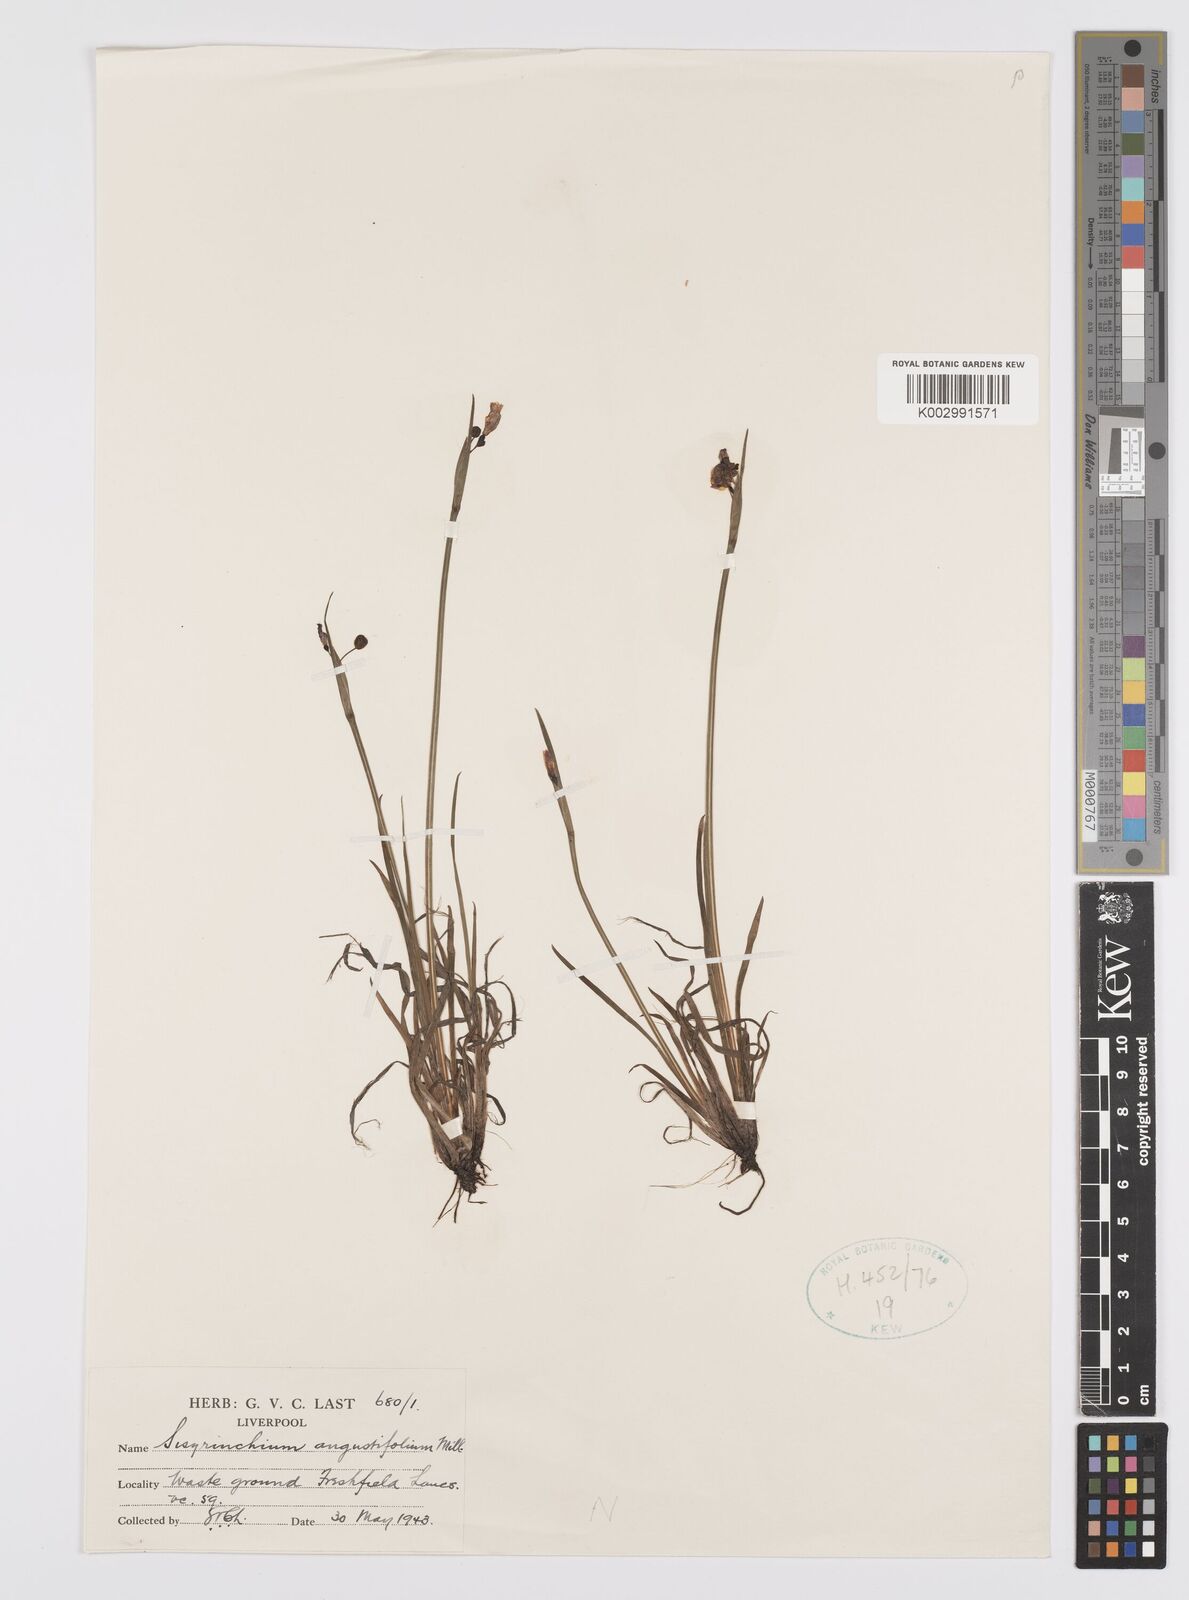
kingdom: Plantae
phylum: Tracheophyta
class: Liliopsida
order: Asparagales
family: Iridaceae
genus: Sisyrinchium
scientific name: Sisyrinchium angustifolium
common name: Narrow-leaf blue-eyed-grass
